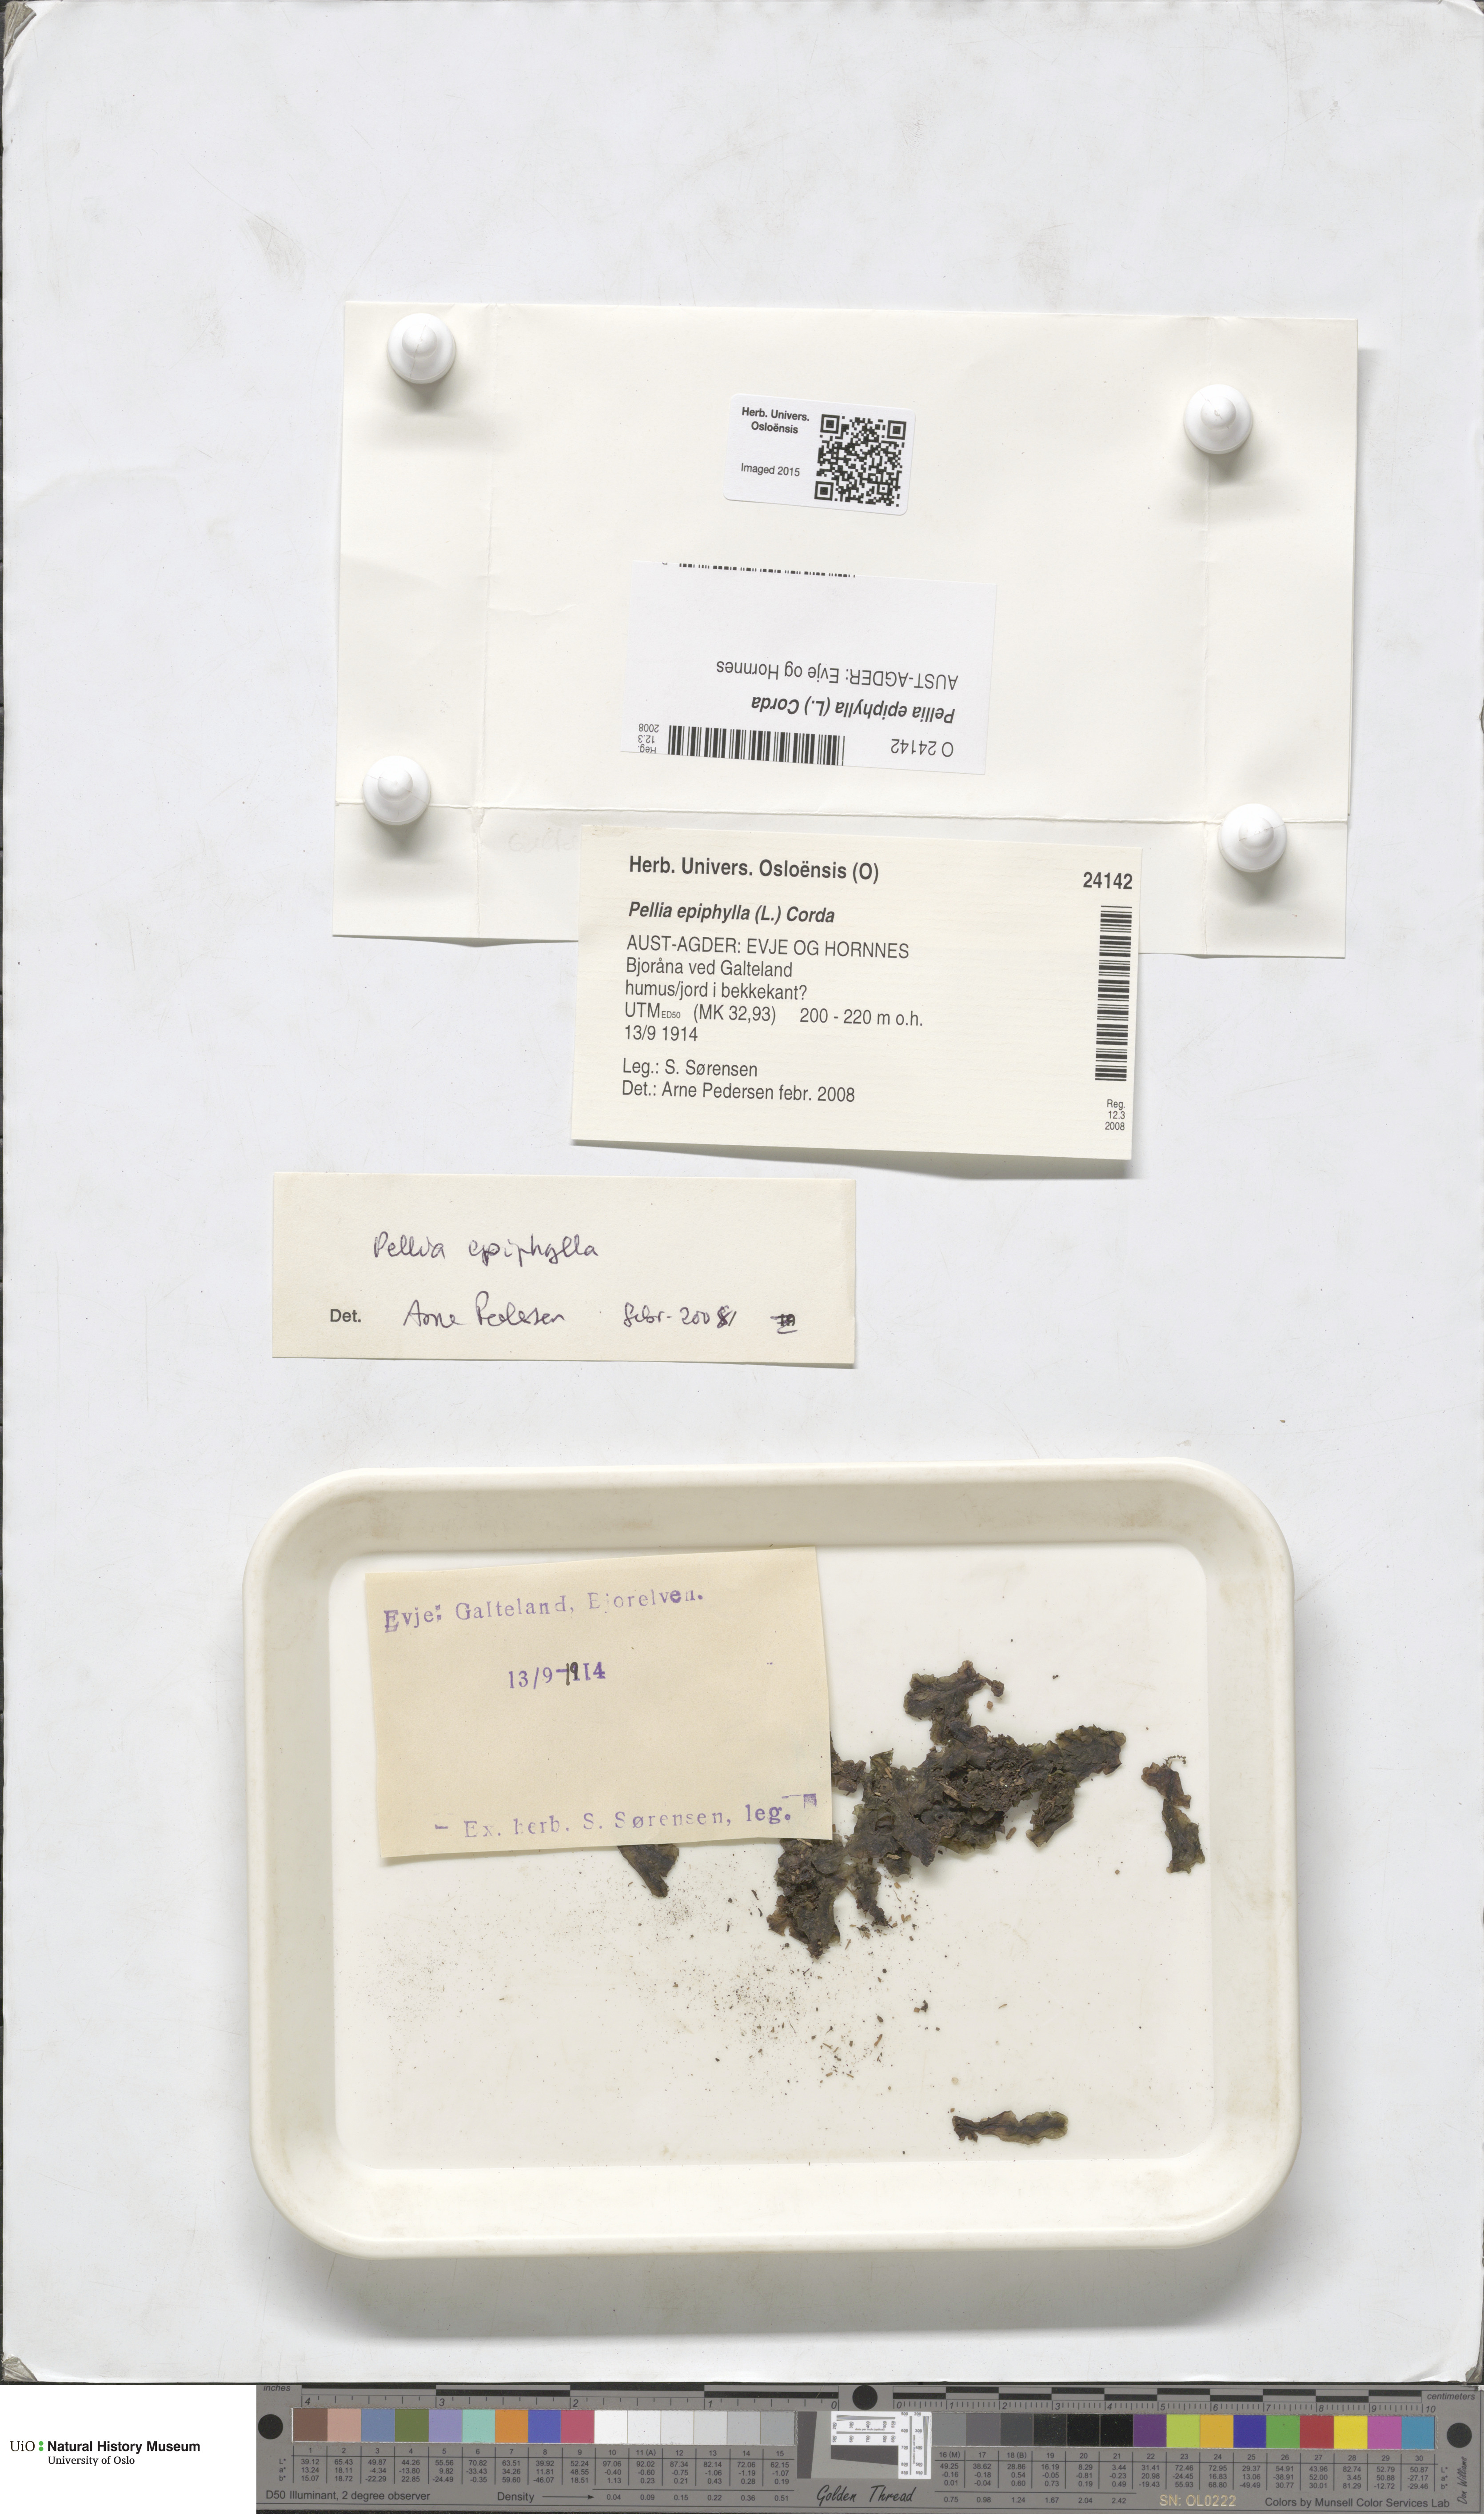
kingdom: Plantae
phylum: Marchantiophyta
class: Jungermanniopsida
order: Pelliales
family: Pelliaceae
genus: Pellia
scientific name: Pellia epiphylla
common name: Common pellia
